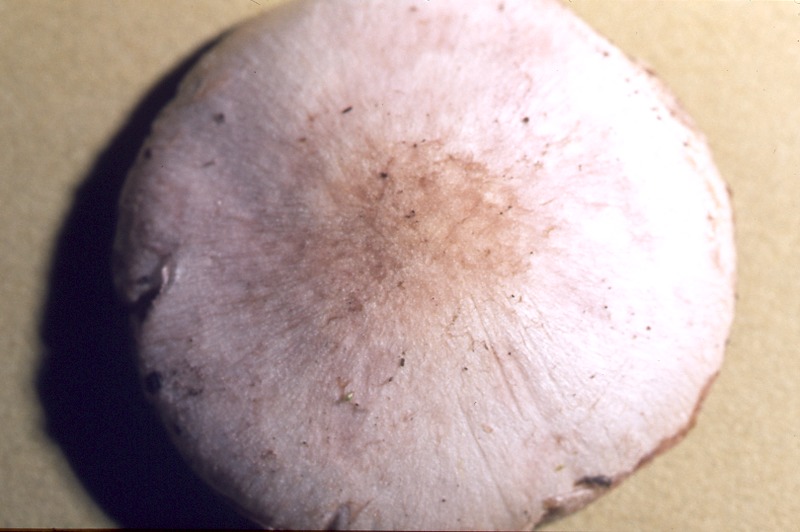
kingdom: Fungi
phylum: Basidiomycota
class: Agaricomycetes
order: Agaricales
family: Agaricaceae
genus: Agaricus
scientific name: Agaricus semotus
